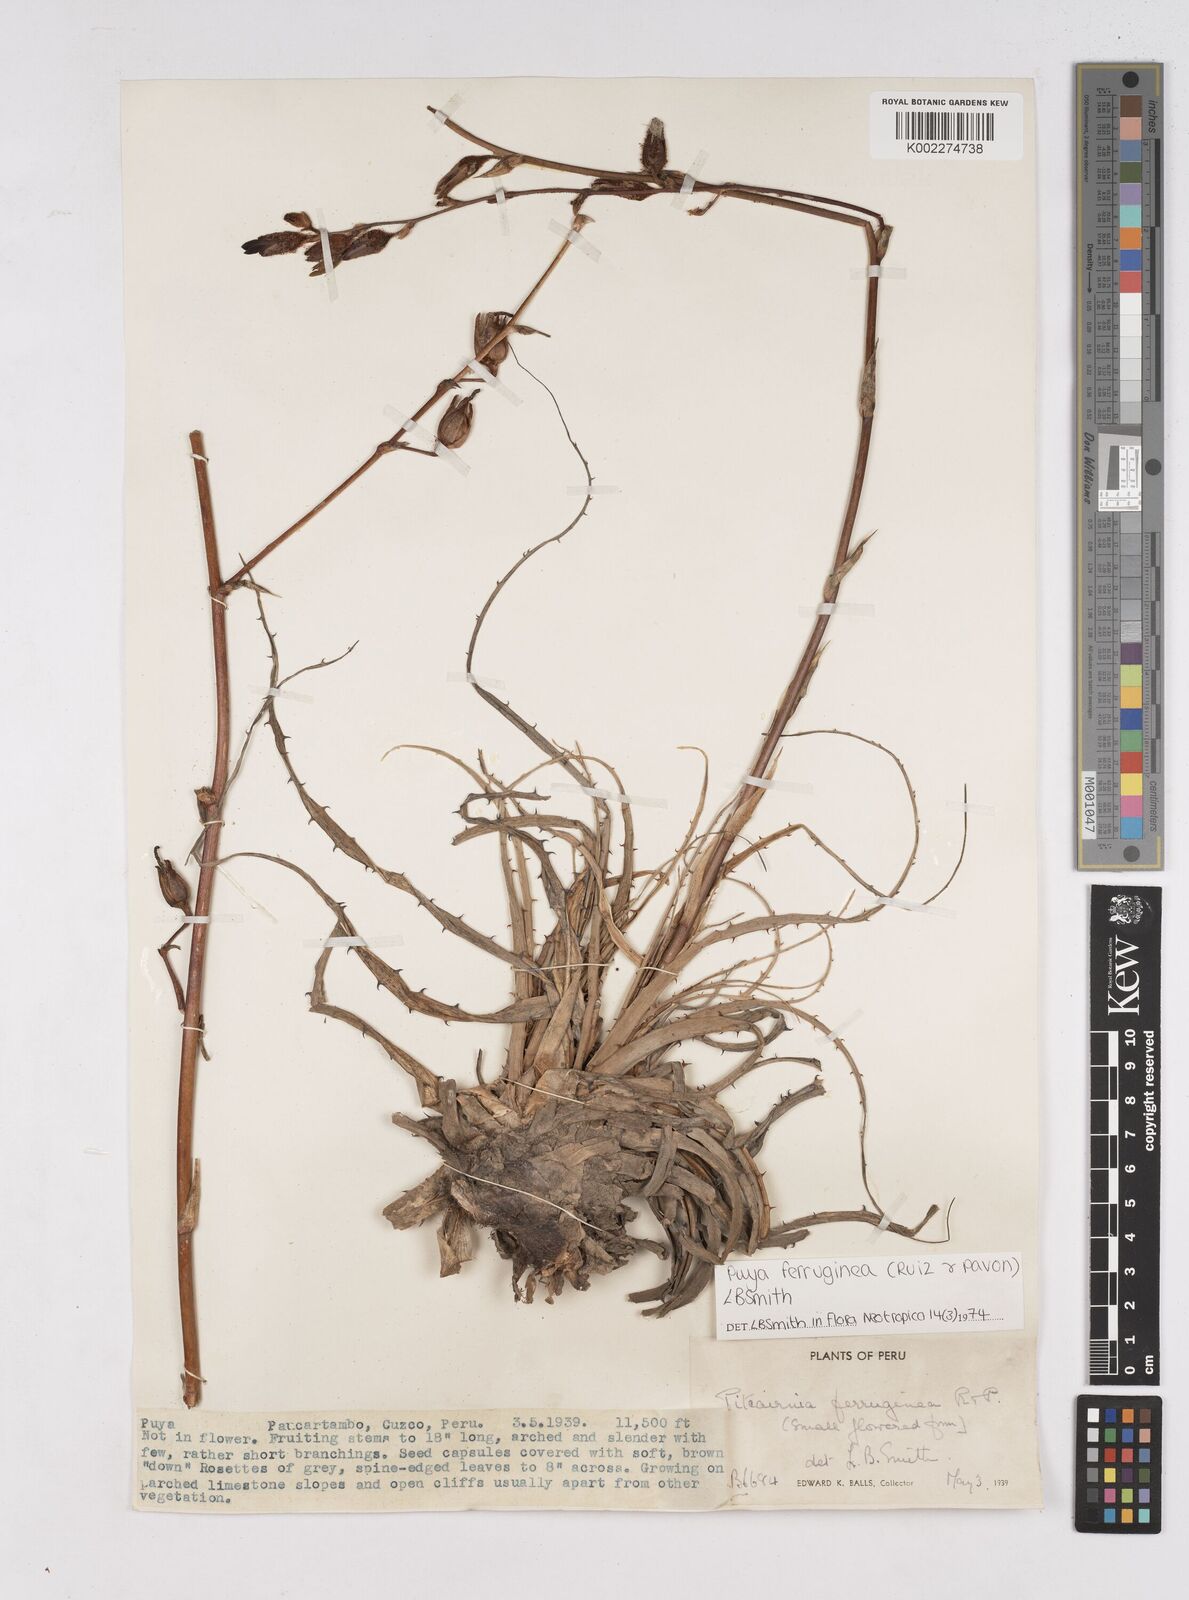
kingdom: Plantae
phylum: Tracheophyta
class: Liliopsida
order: Poales
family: Bromeliaceae
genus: Puya
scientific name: Puya ferruginea
